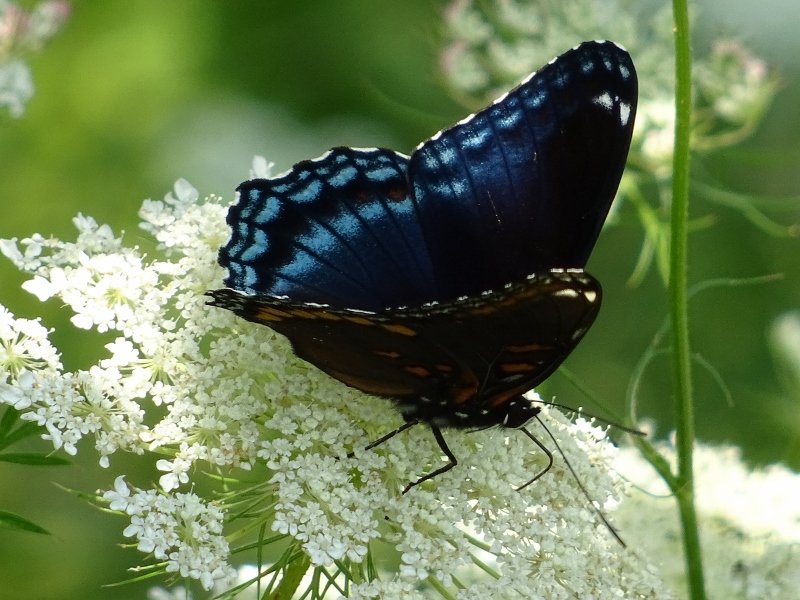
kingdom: Animalia
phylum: Arthropoda
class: Insecta
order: Lepidoptera
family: Nymphalidae
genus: Limenitis
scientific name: Limenitis astyanax
